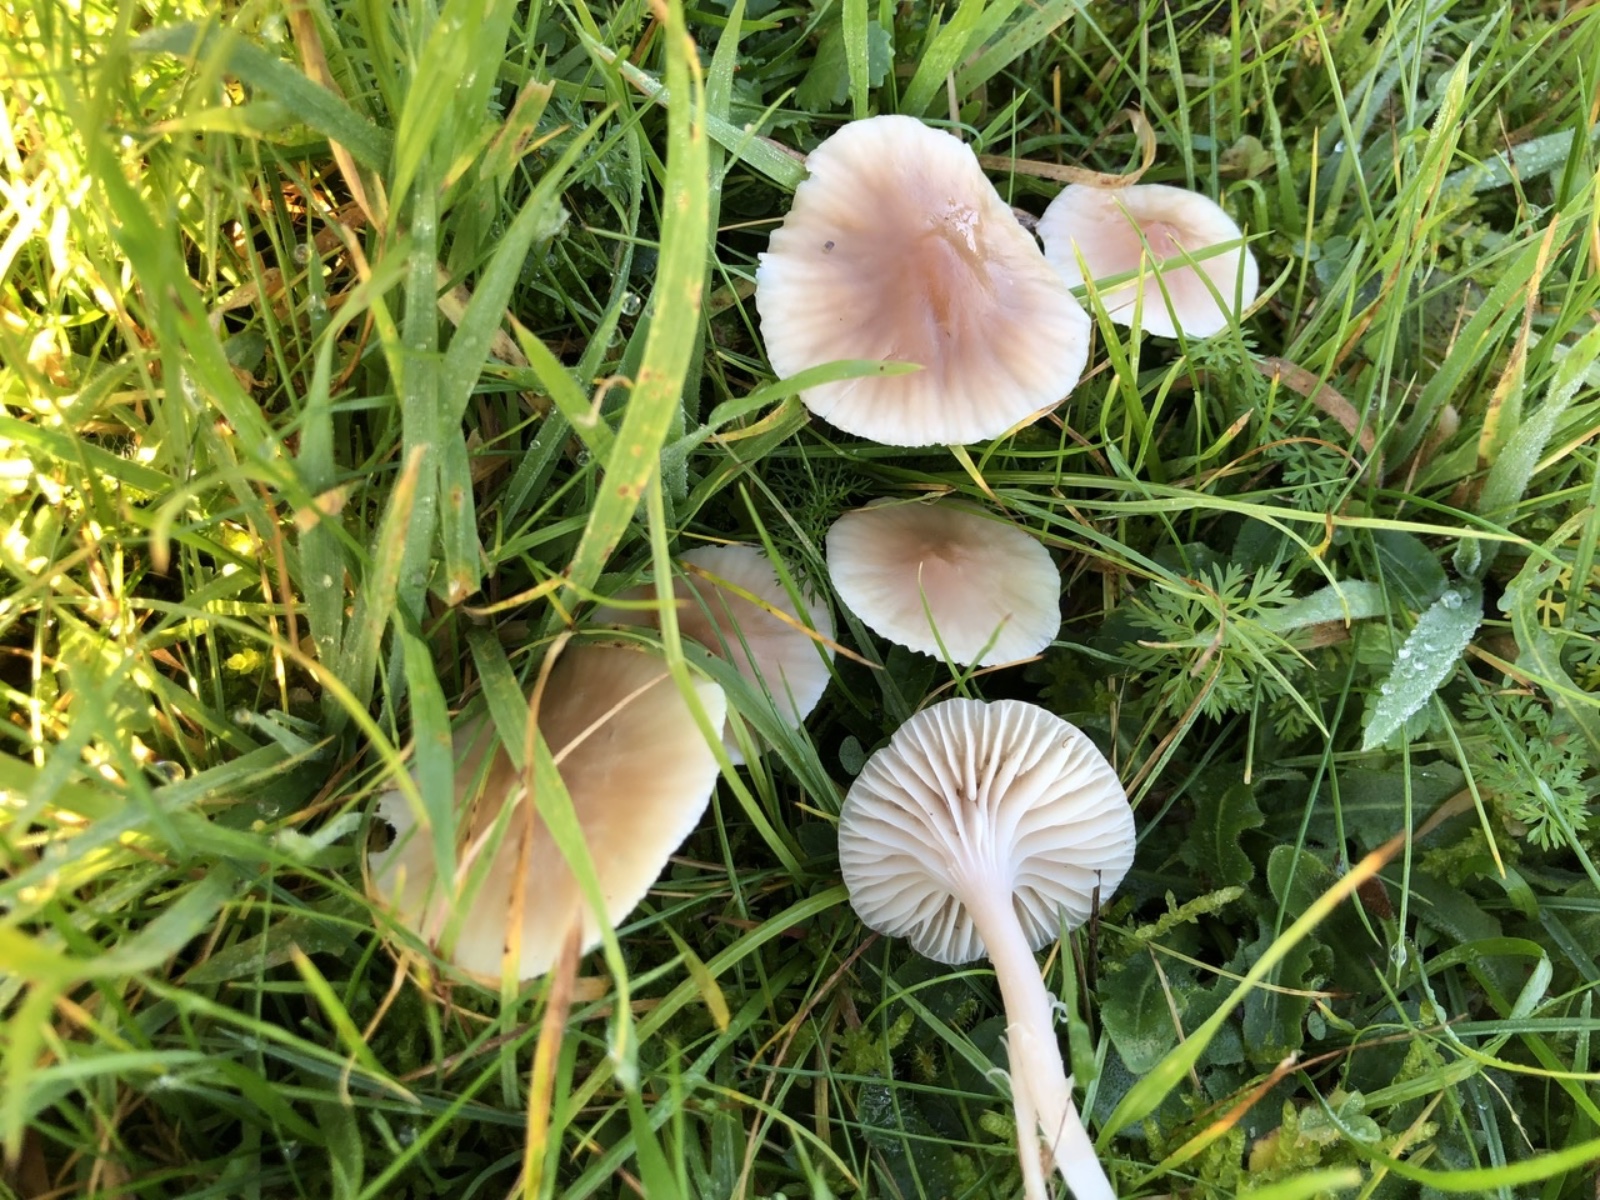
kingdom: Fungi
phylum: Basidiomycota
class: Agaricomycetes
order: Agaricales
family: Hygrophoraceae
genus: Cuphophyllus
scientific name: Cuphophyllus
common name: vokshat
